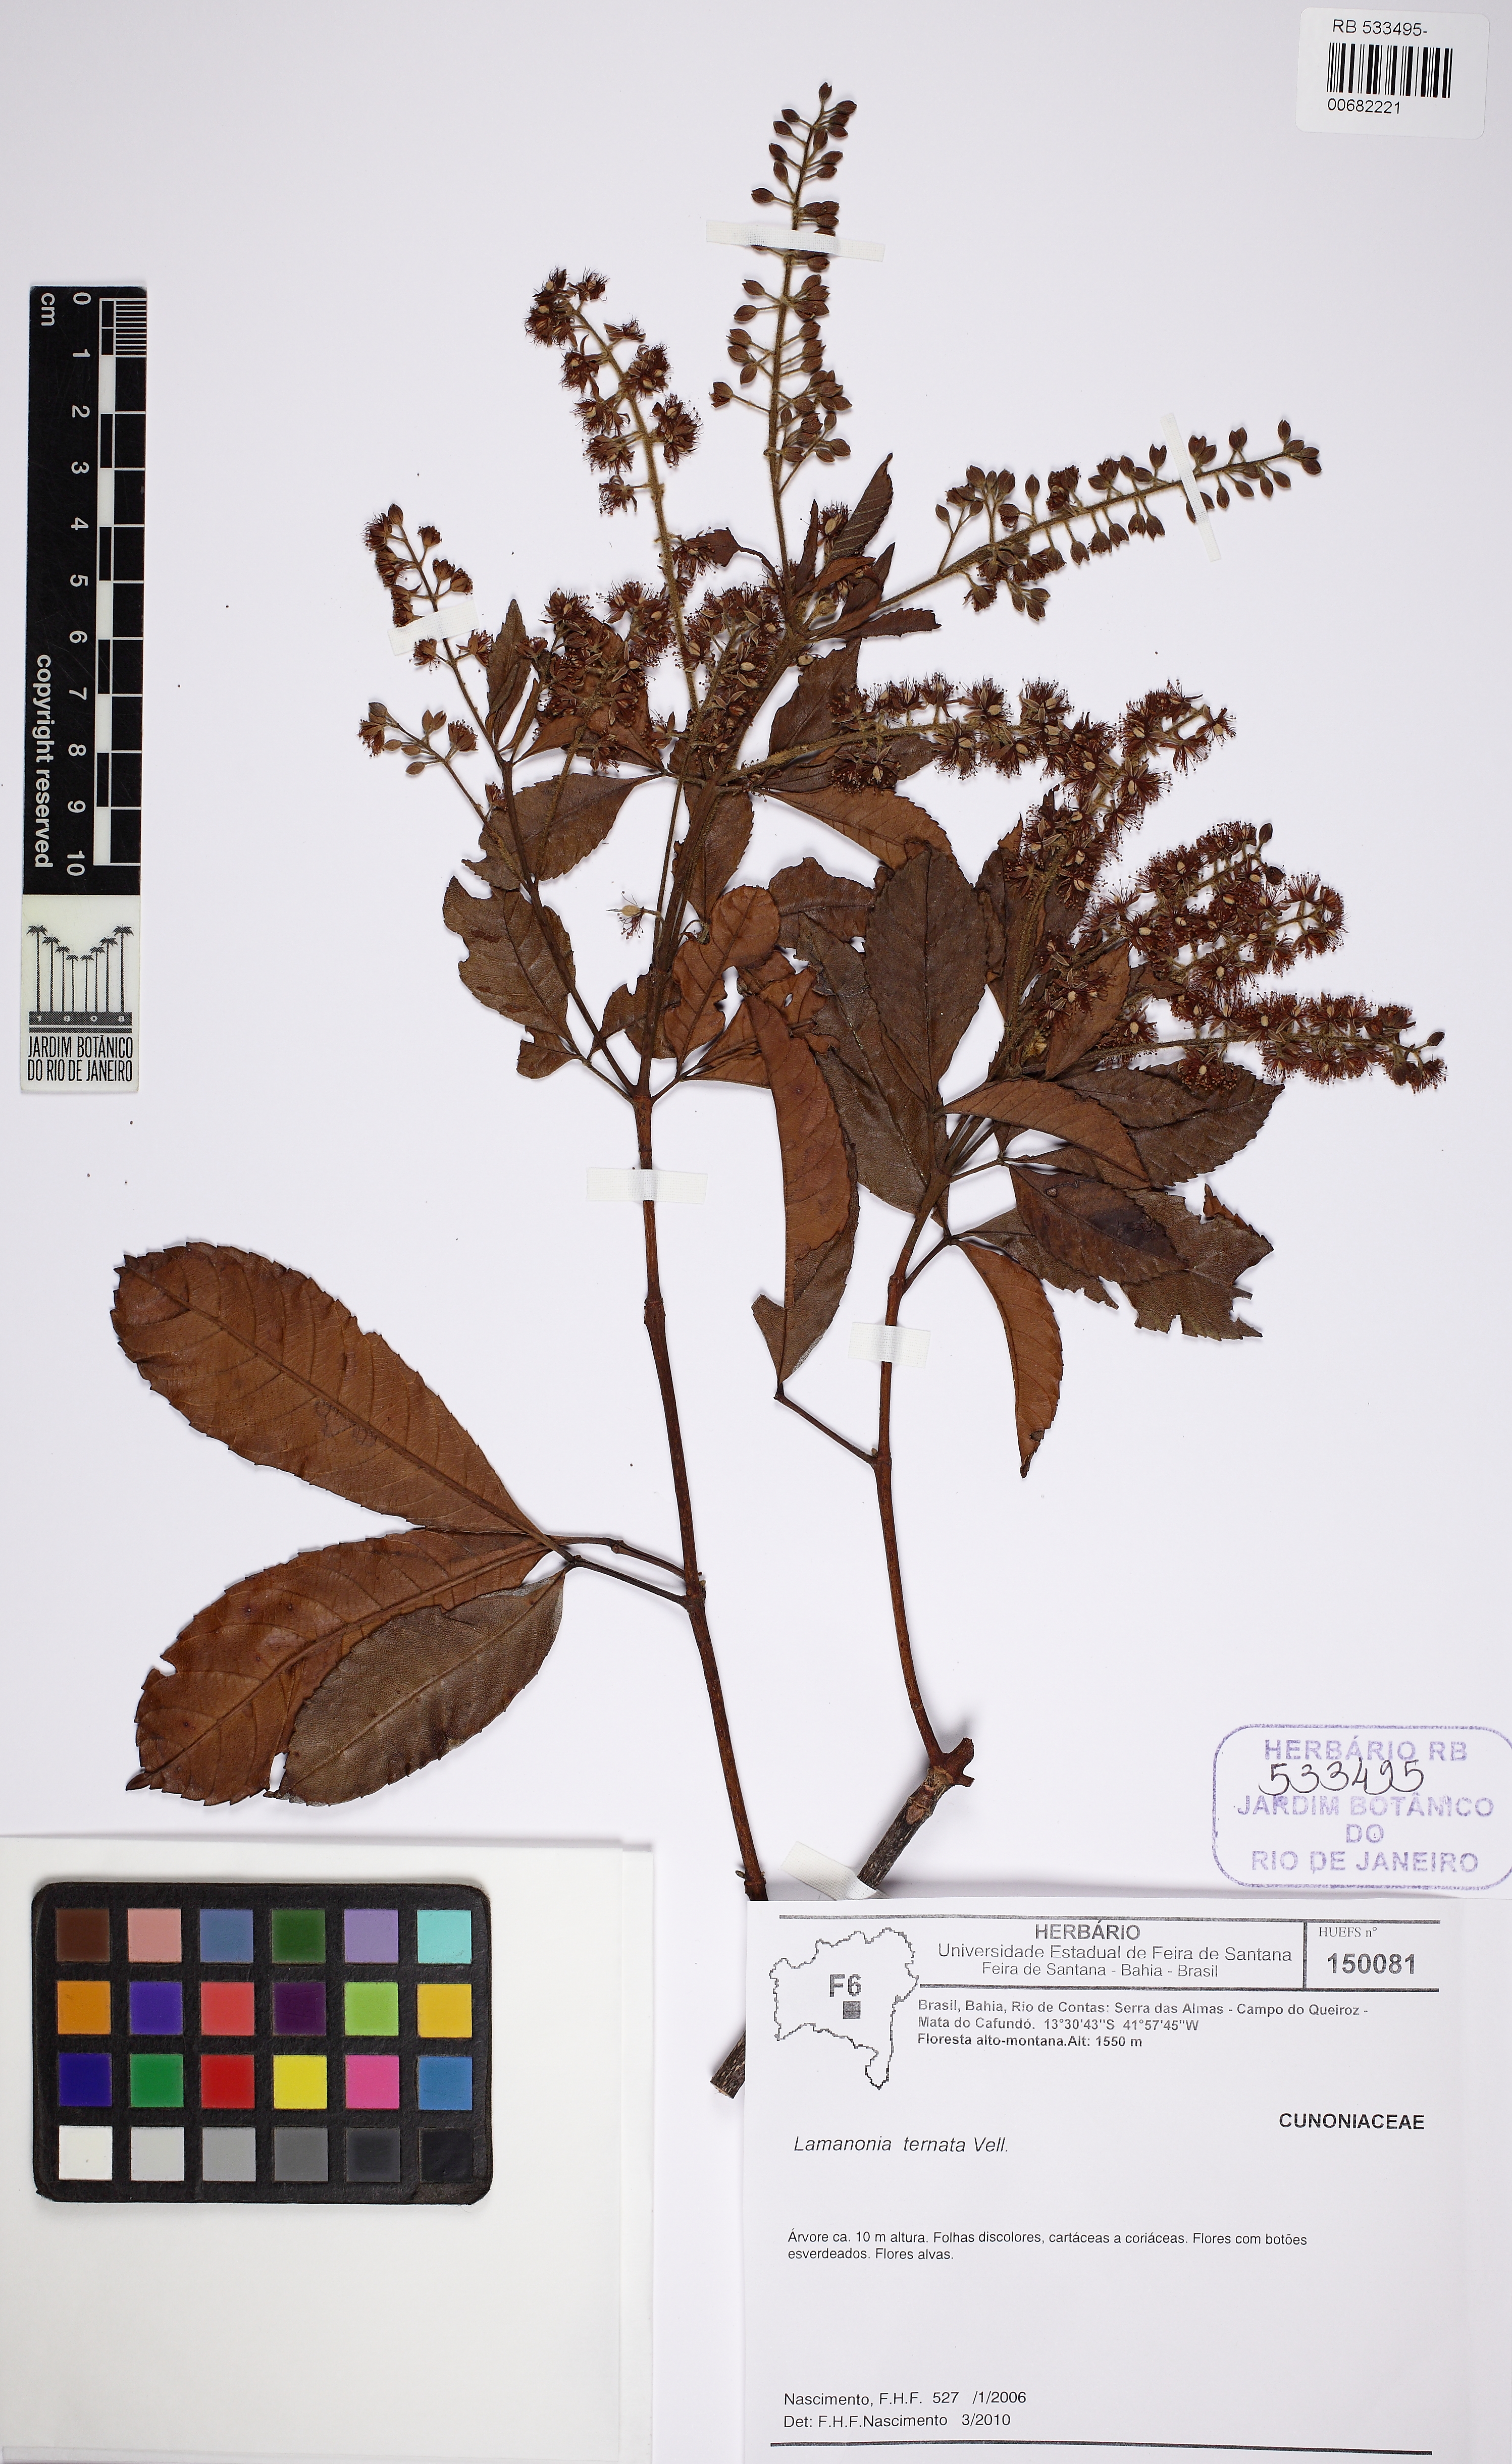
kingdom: Plantae
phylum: Tracheophyta
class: Magnoliopsida
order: Oxalidales
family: Cunoniaceae
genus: Lamanonia
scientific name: Lamanonia ternata
